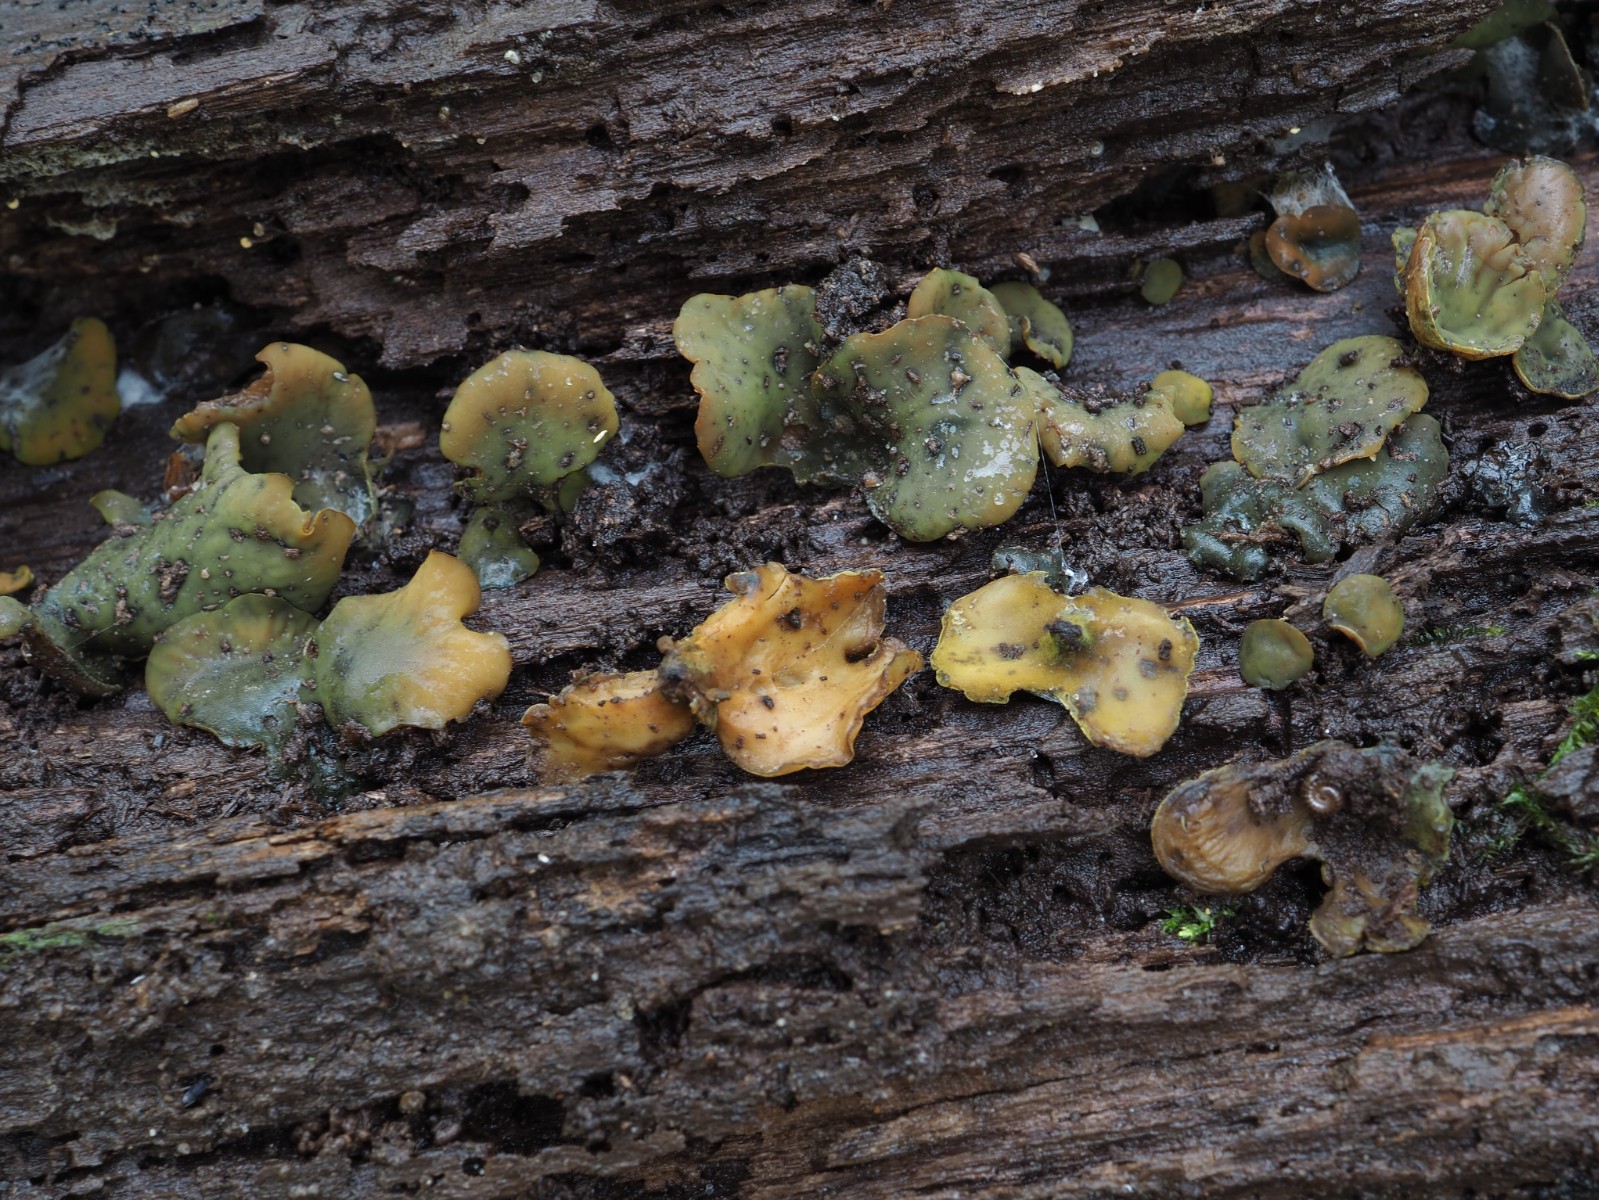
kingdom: Fungi
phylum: Ascomycota
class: Leotiomycetes
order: Helotiales
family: Cenangiaceae
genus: Chlorencoelia
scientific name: Chlorencoelia versiformis
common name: gullig grønskive
